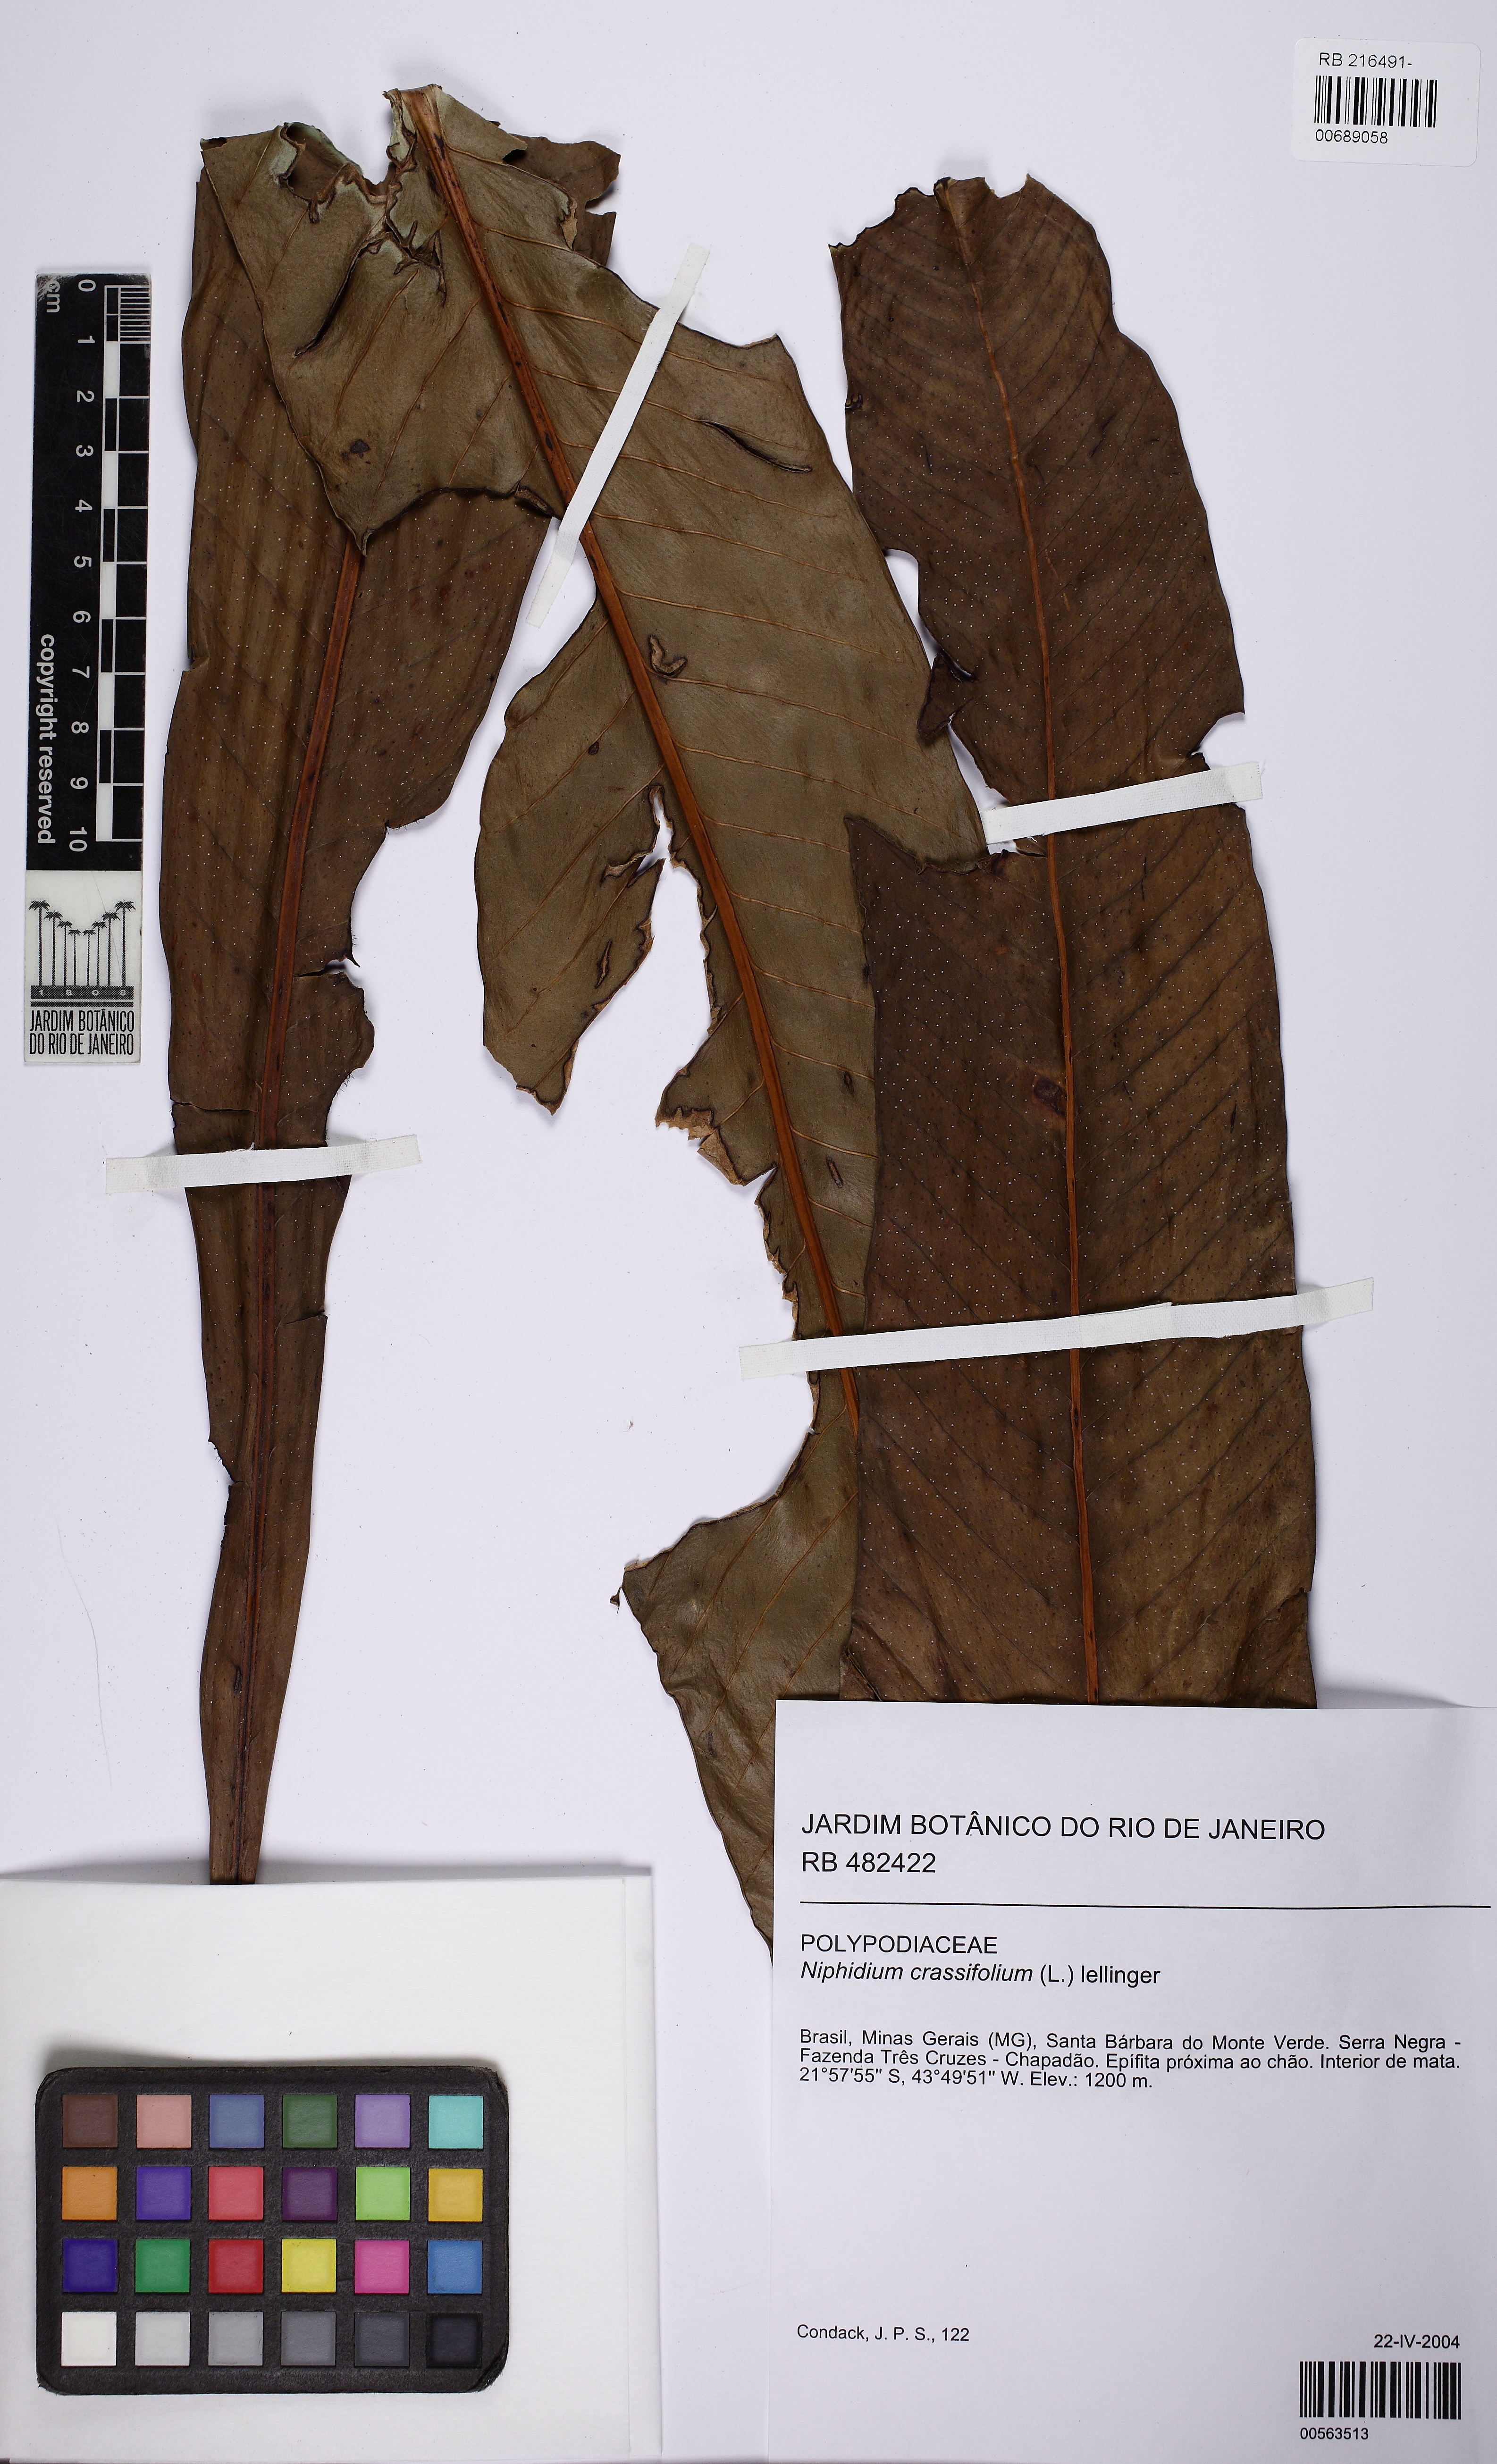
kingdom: Plantae
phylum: Tracheophyta
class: Polypodiopsida
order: Polypodiales
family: Polypodiaceae
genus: Niphidium
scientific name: Niphidium crassifolium
